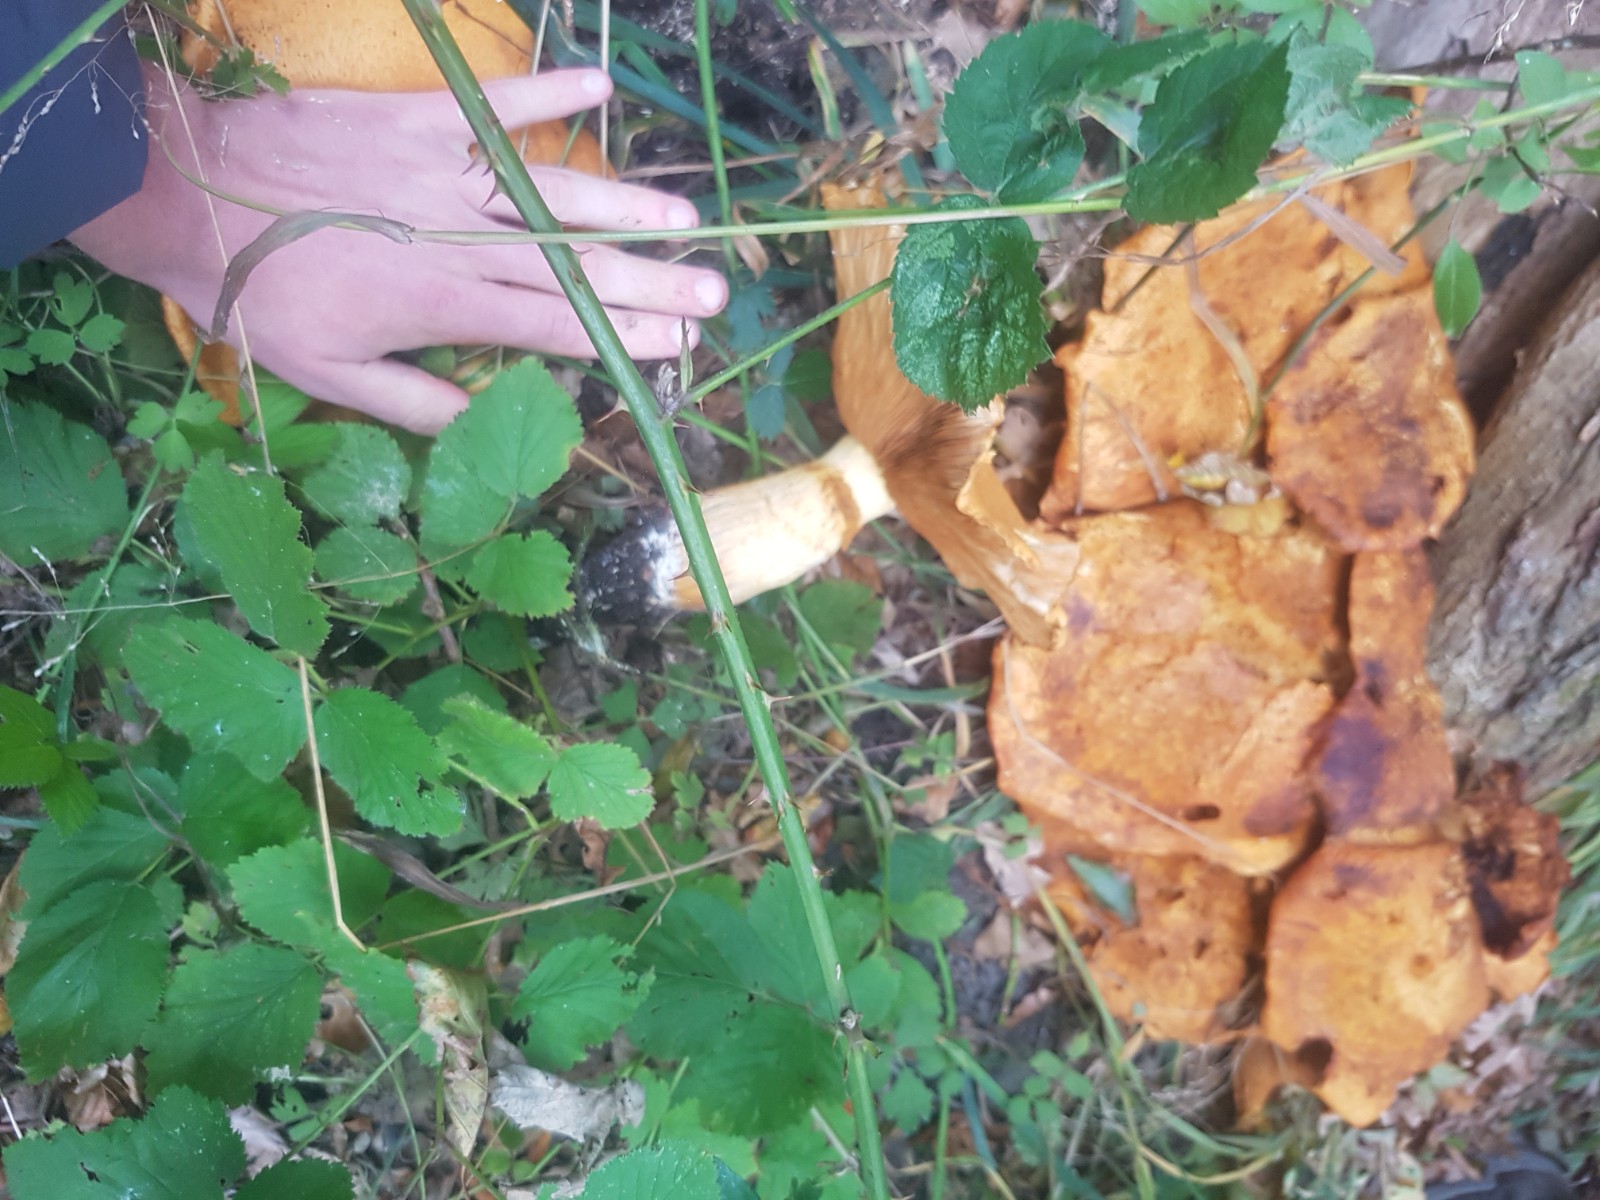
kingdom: Fungi
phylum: Basidiomycota
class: Agaricomycetes
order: Agaricales
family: Hymenogastraceae
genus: Gymnopilus
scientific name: Gymnopilus spectabilis
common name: fibret flammehat
